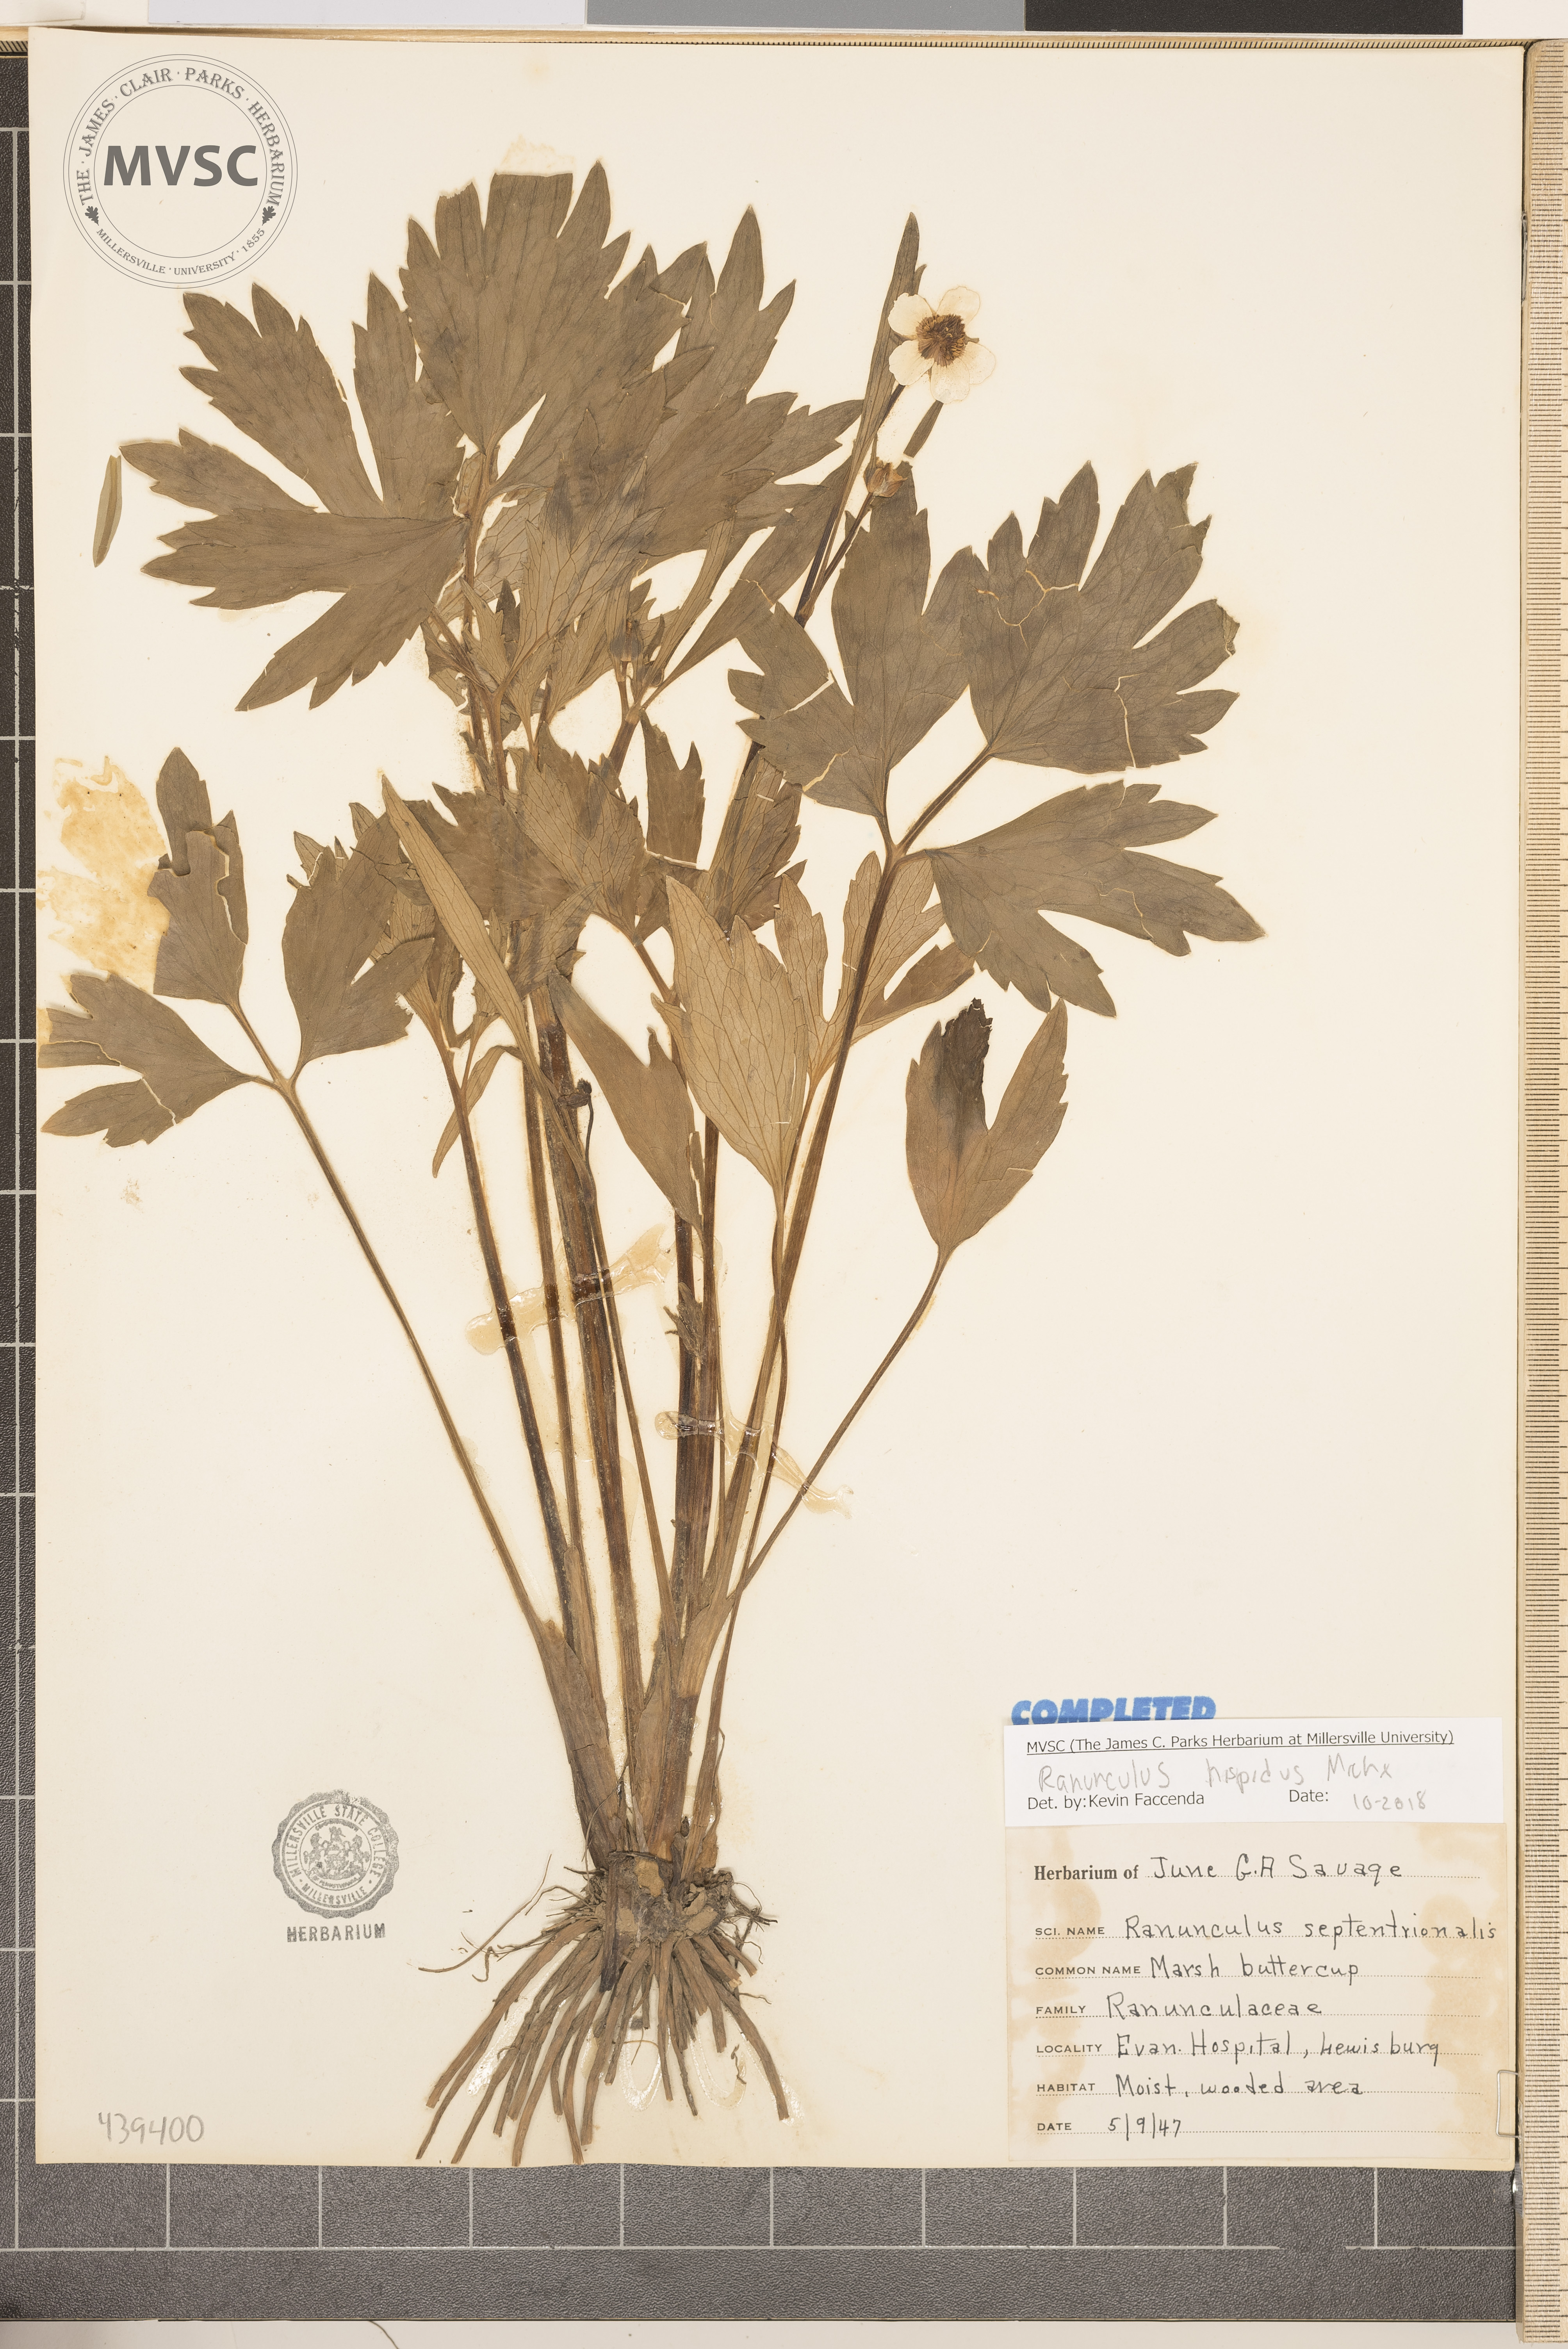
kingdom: Plantae
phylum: Tracheophyta
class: Magnoliopsida
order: Ranunculales
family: Ranunculaceae
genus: Ranunculus
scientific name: Ranunculus hispidus
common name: Bristly buttercup
